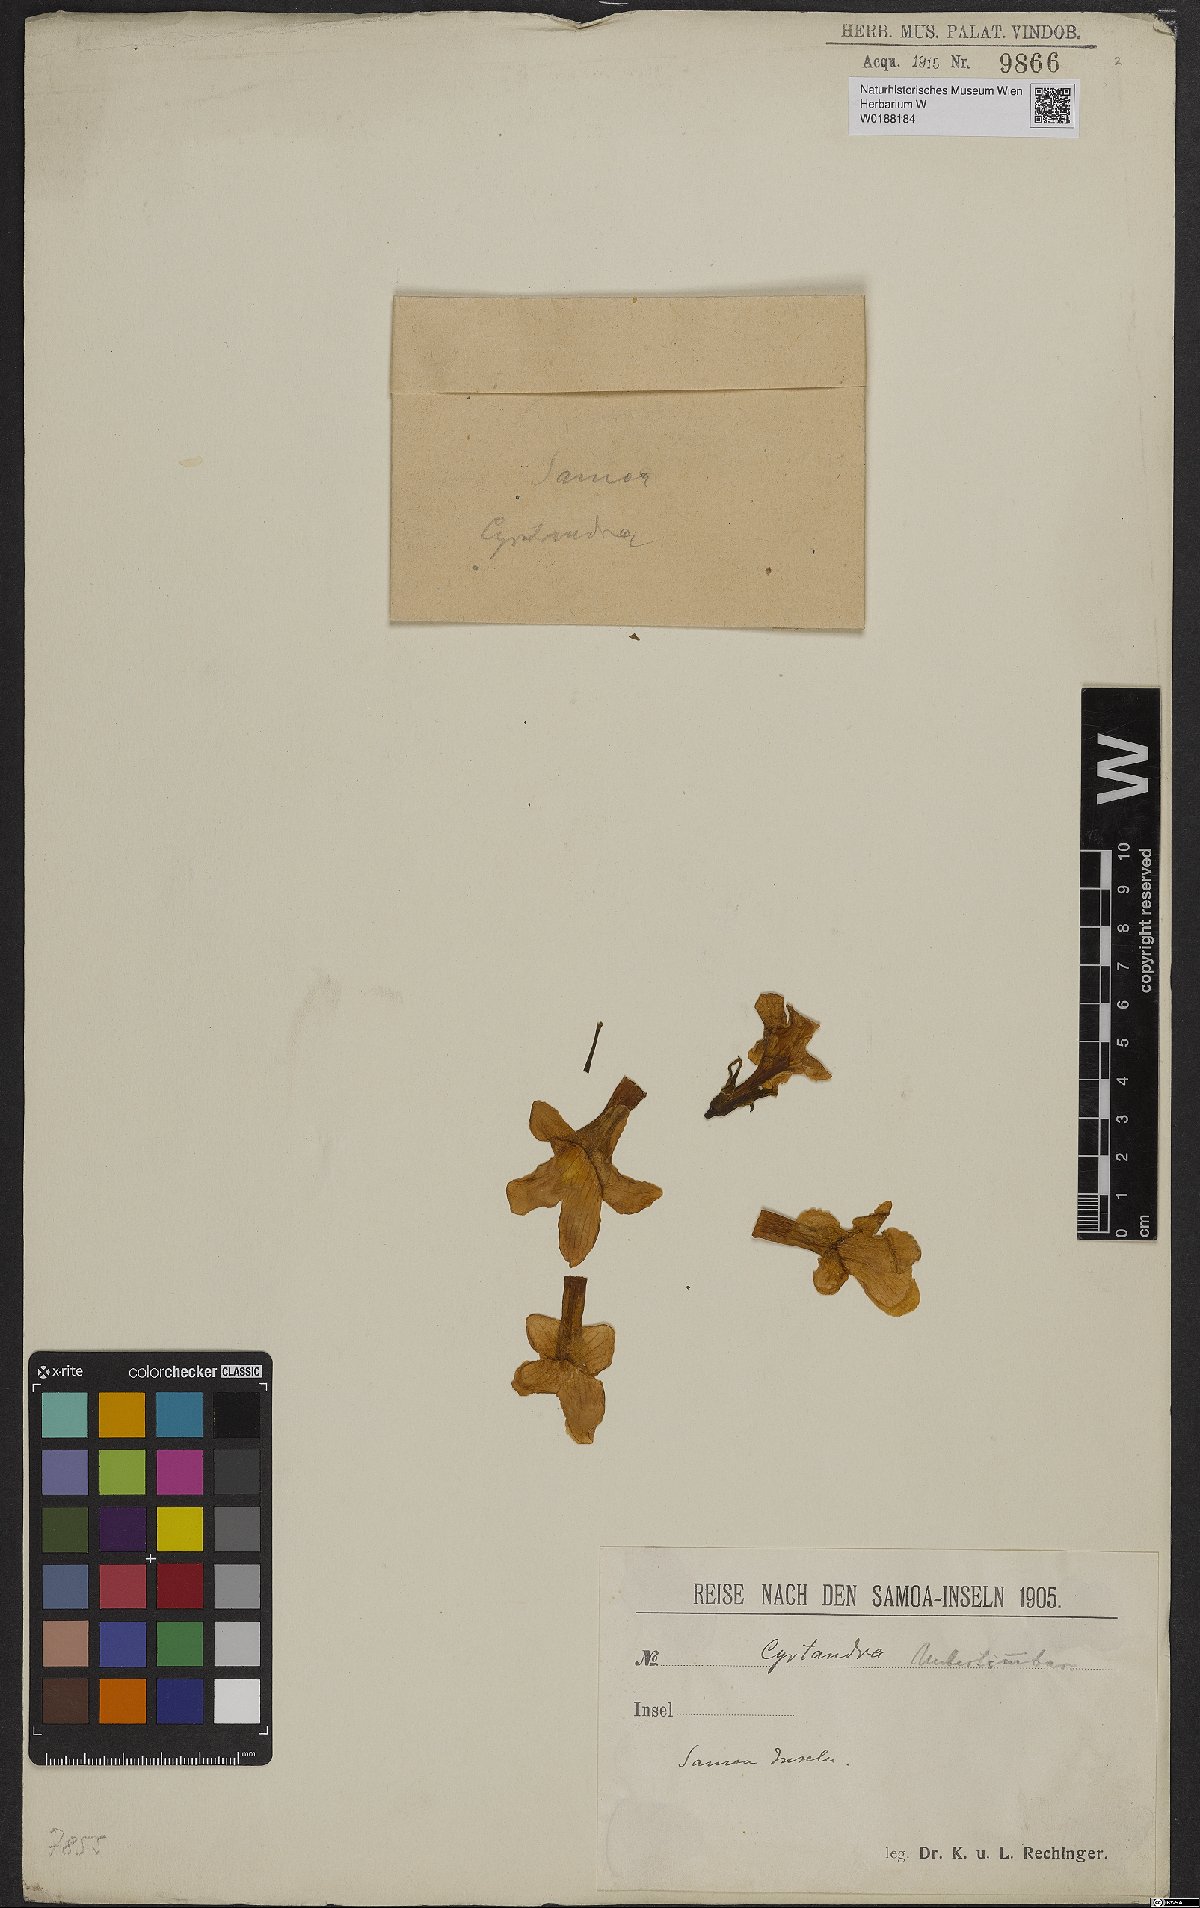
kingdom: Plantae
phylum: Tracheophyta
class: Magnoliopsida
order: Lamiales
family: Gesneriaceae
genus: Cyrtandra
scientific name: Cyrtandra
